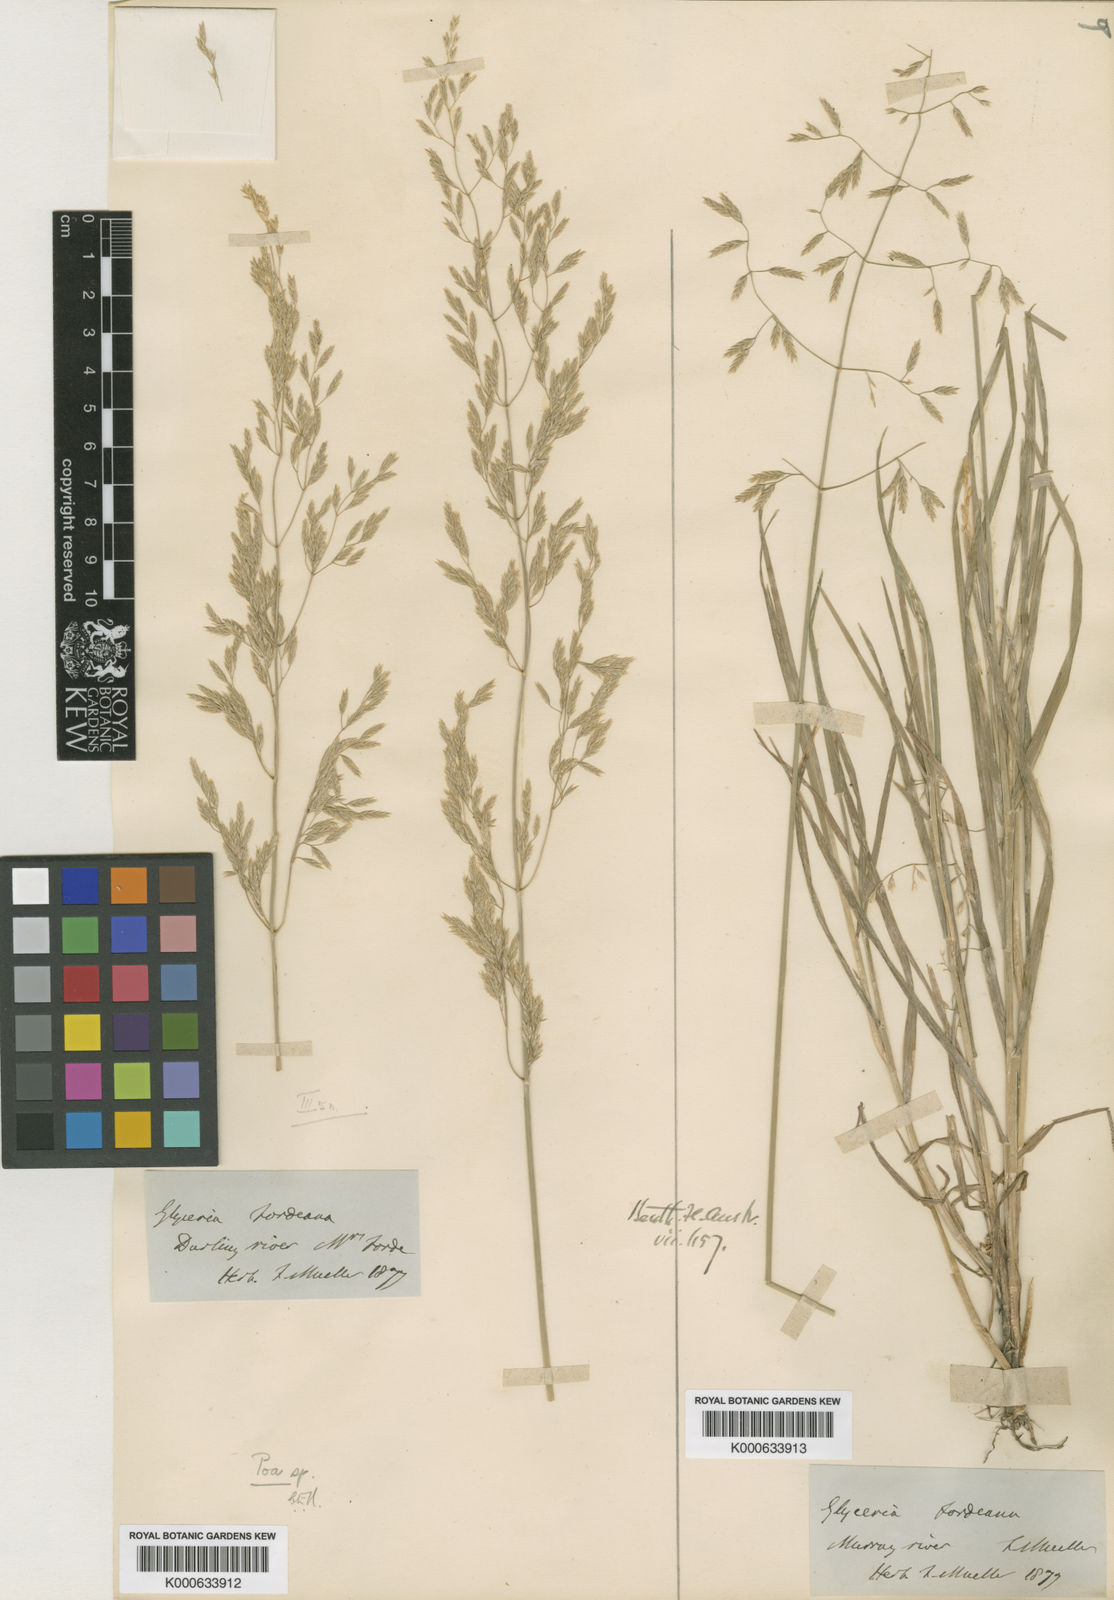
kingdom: Plantae
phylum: Tracheophyta
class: Liliopsida
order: Poales
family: Poaceae
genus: Poa
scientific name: Poa fordeana
